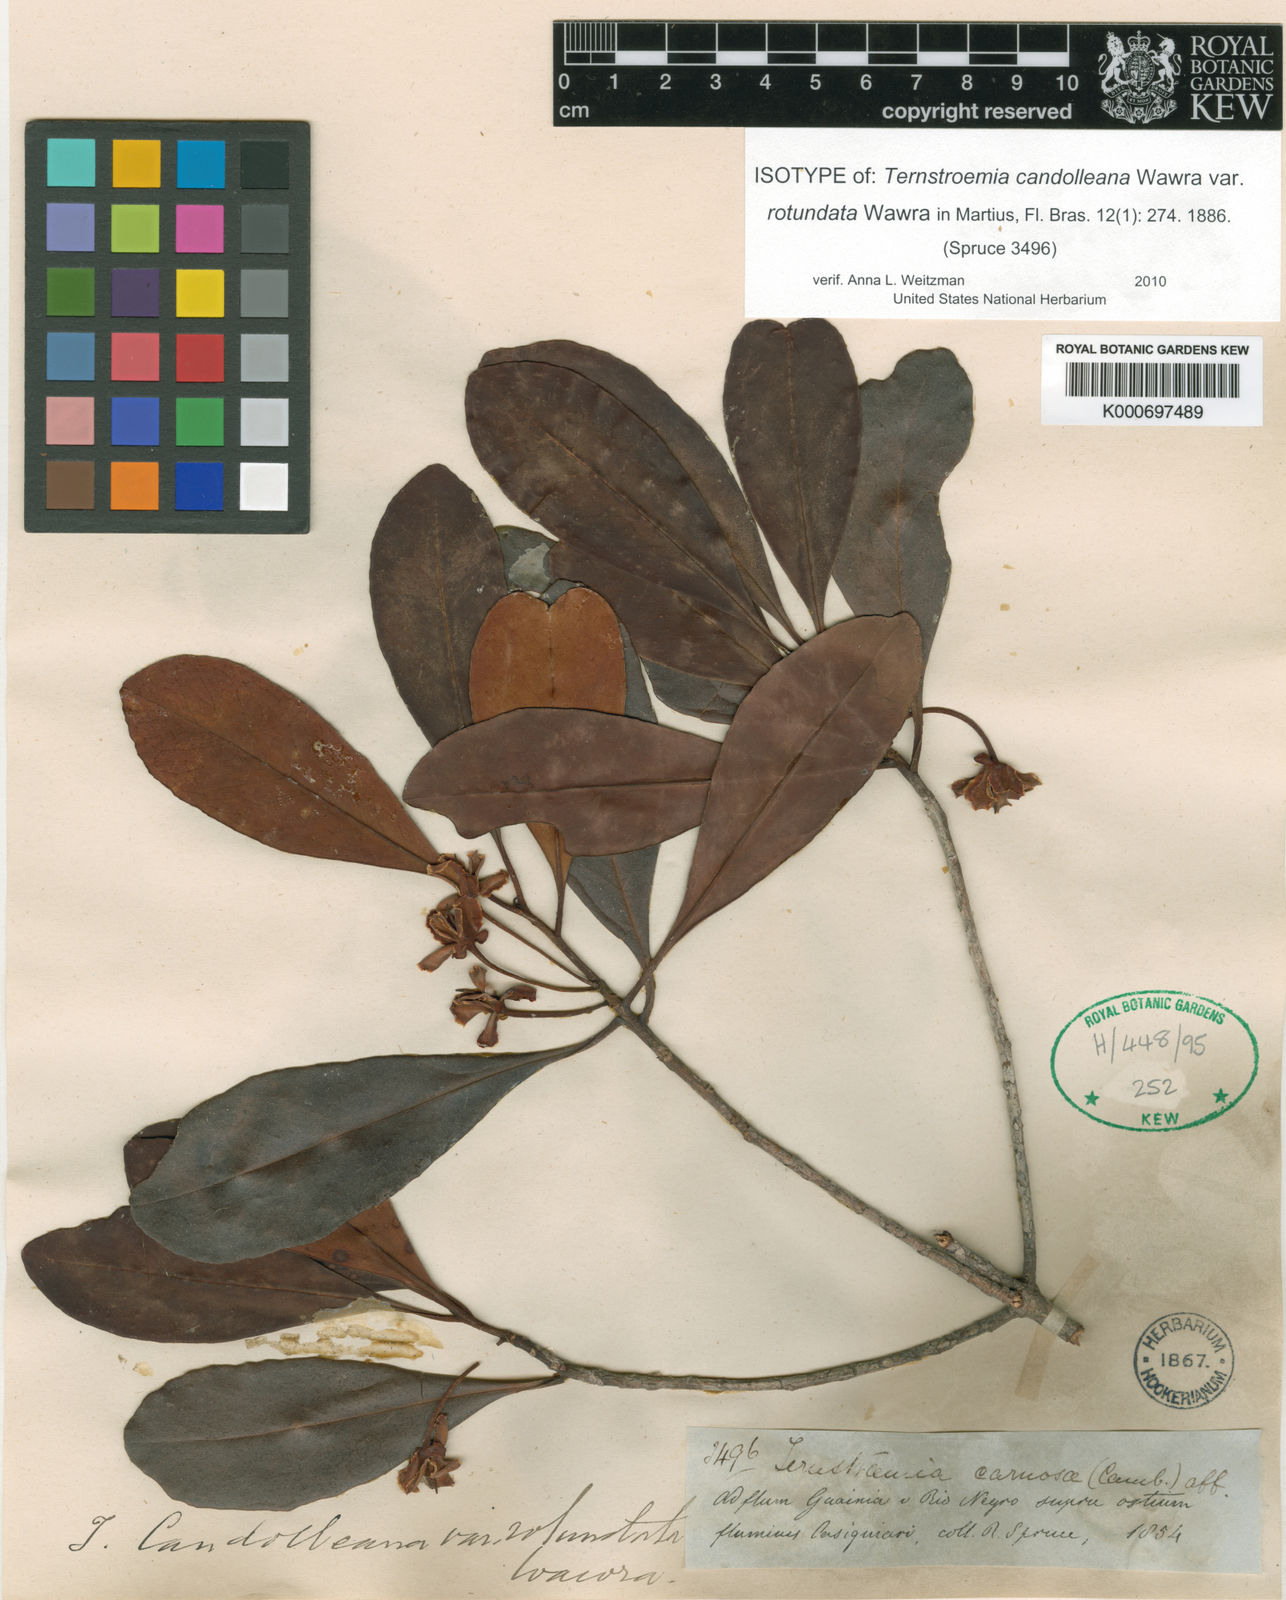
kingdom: Plantae
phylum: Tracheophyta
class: Magnoliopsida
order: Ericales
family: Pentaphylacaceae
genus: Ternstroemia
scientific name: Ternstroemia candolleana
